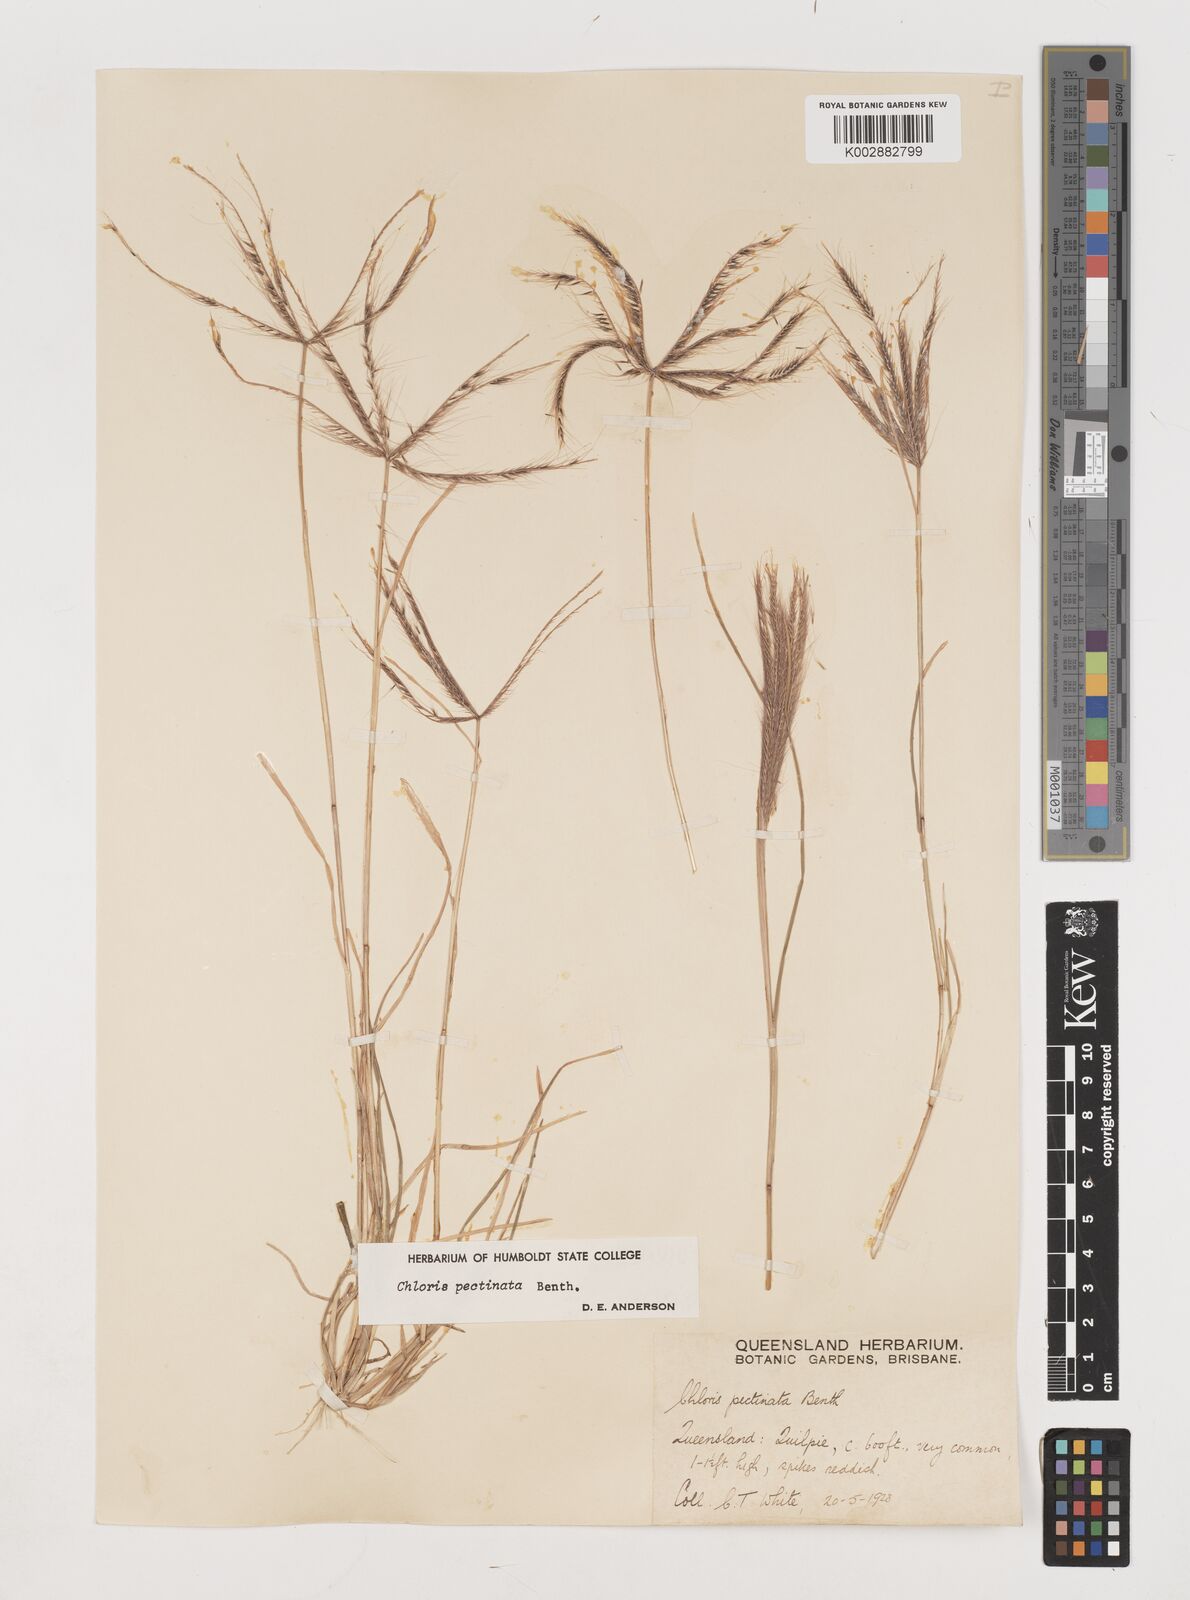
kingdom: Plantae
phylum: Tracheophyta
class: Liliopsida
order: Poales
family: Poaceae
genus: Chloris
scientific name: Chloris pectinata
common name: Comb windmill grass
